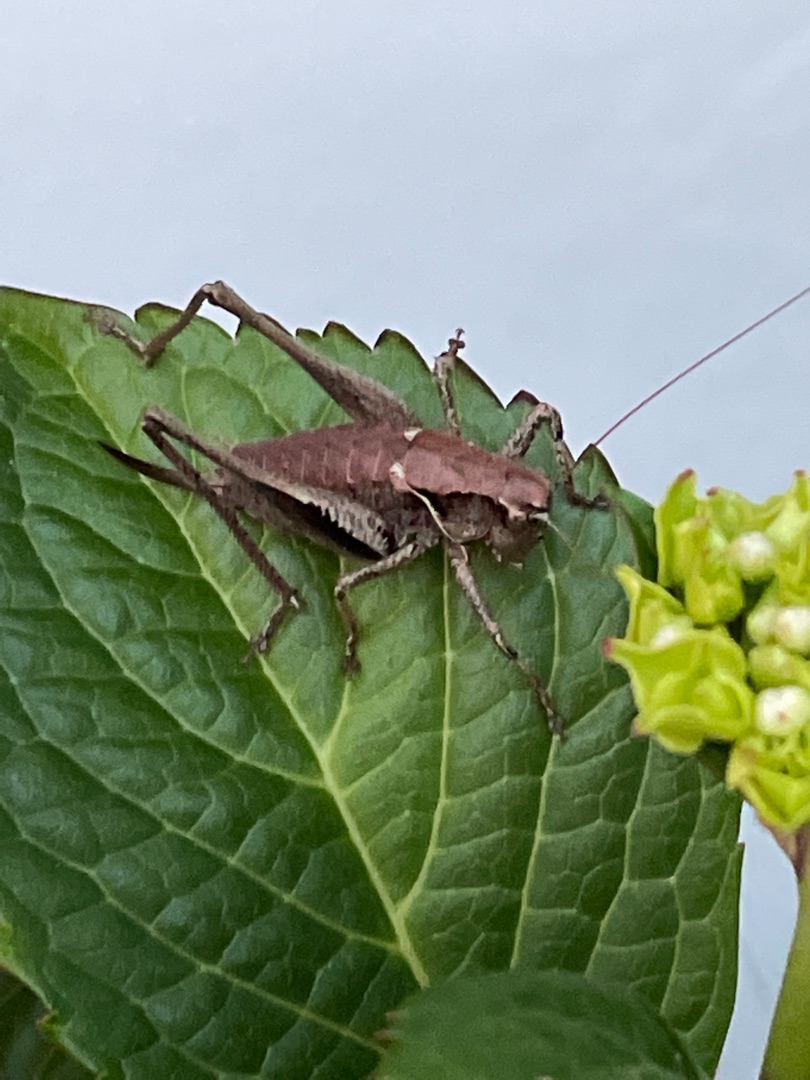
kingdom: Animalia
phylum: Arthropoda
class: Insecta
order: Orthoptera
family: Tettigoniidae
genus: Pholidoptera
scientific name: Pholidoptera griseoaptera
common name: Buskgræshoppe
